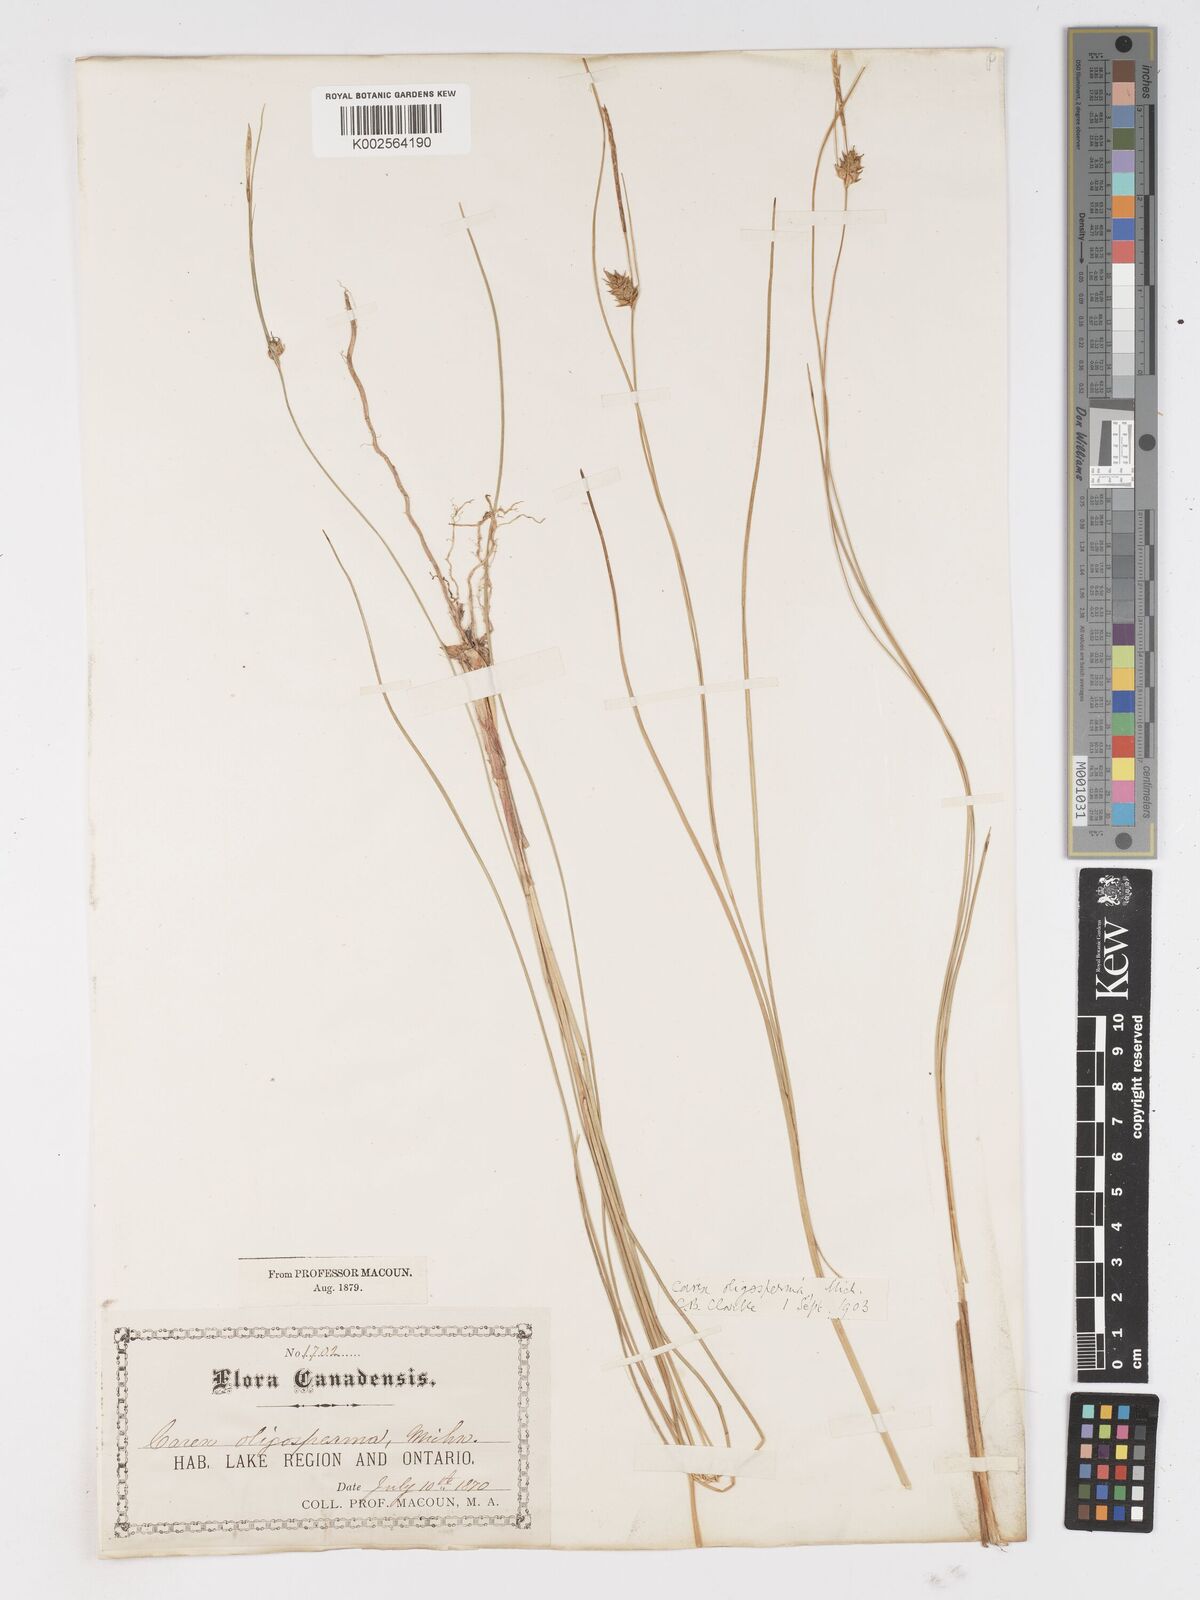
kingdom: Plantae
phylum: Tracheophyta
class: Liliopsida
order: Poales
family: Cyperaceae
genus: Carex
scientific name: Carex oligosperma
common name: Few-seed sedge
